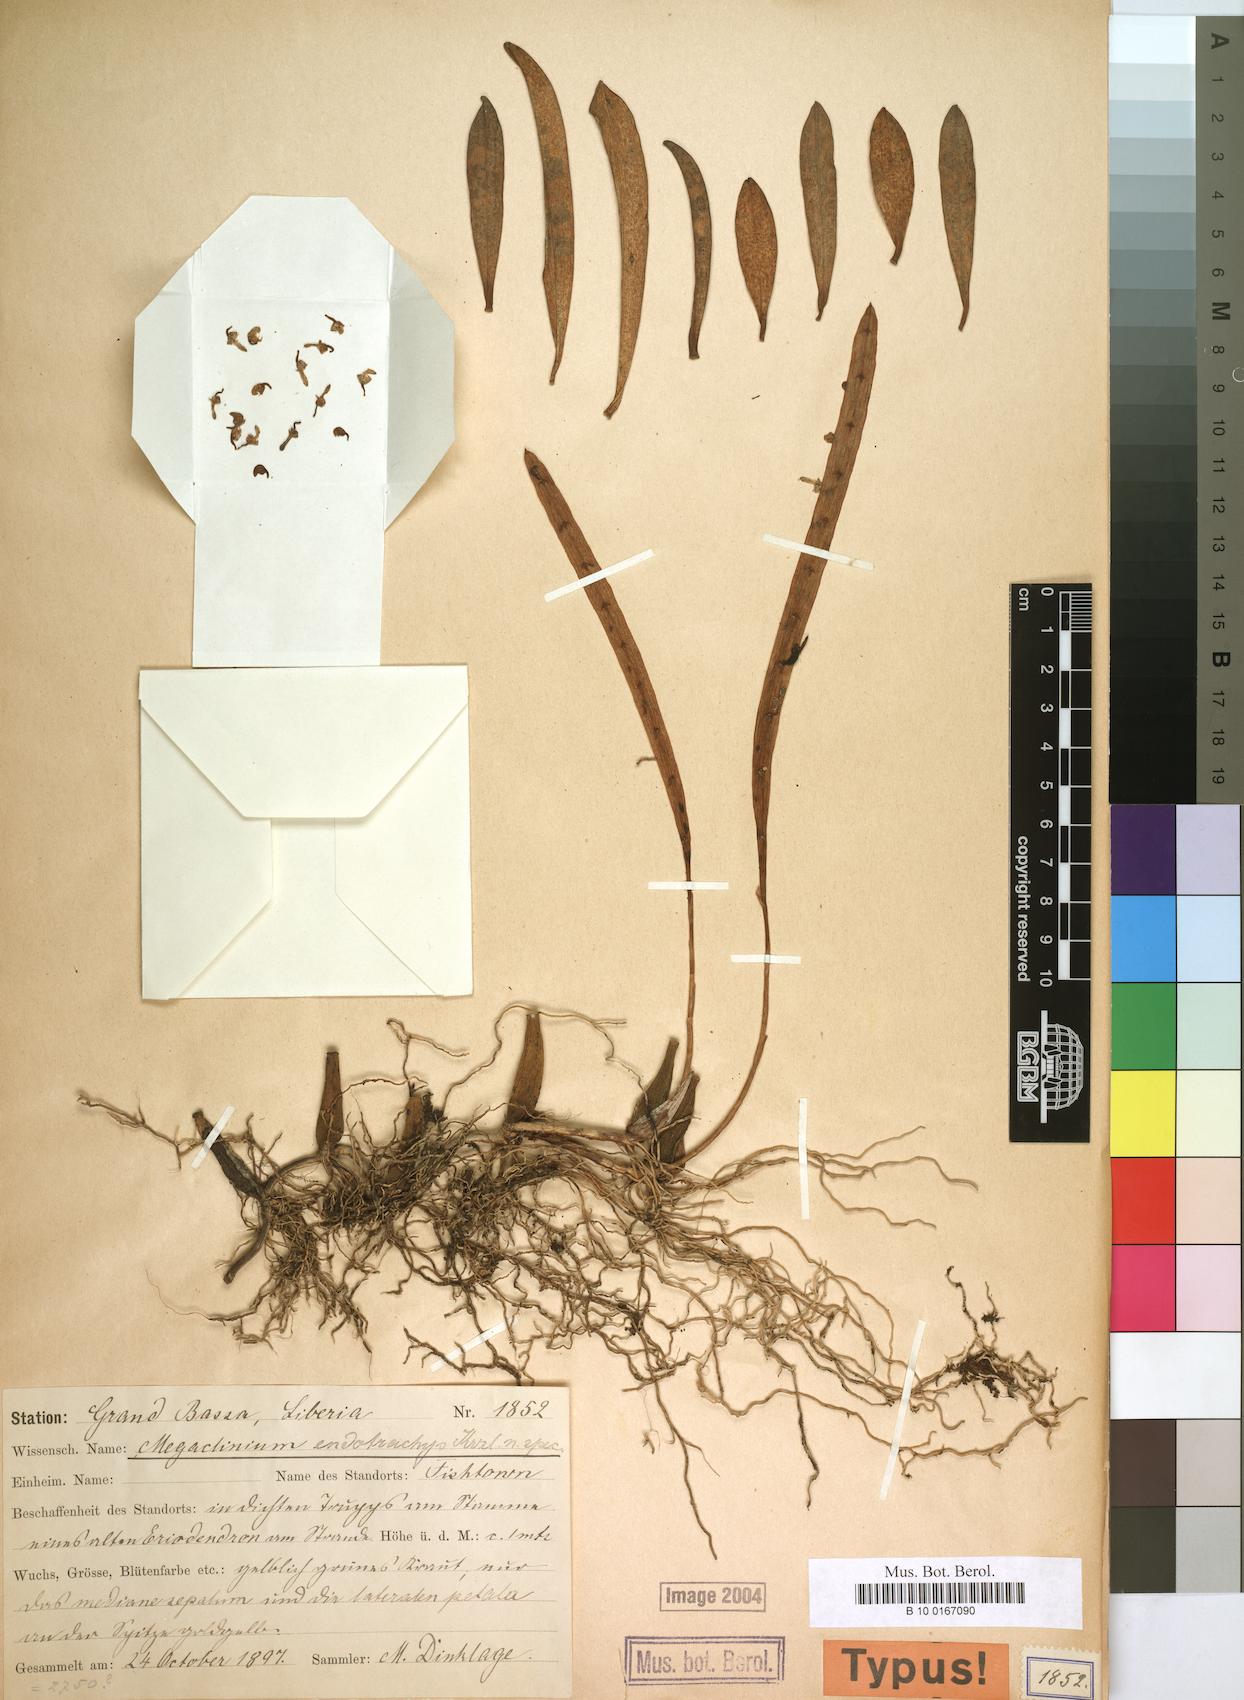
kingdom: Plantae
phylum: Tracheophyta
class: Liliopsida
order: Asparagales
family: Orchidaceae
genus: Bulbophyllum
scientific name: Bulbophyllum falcatum
